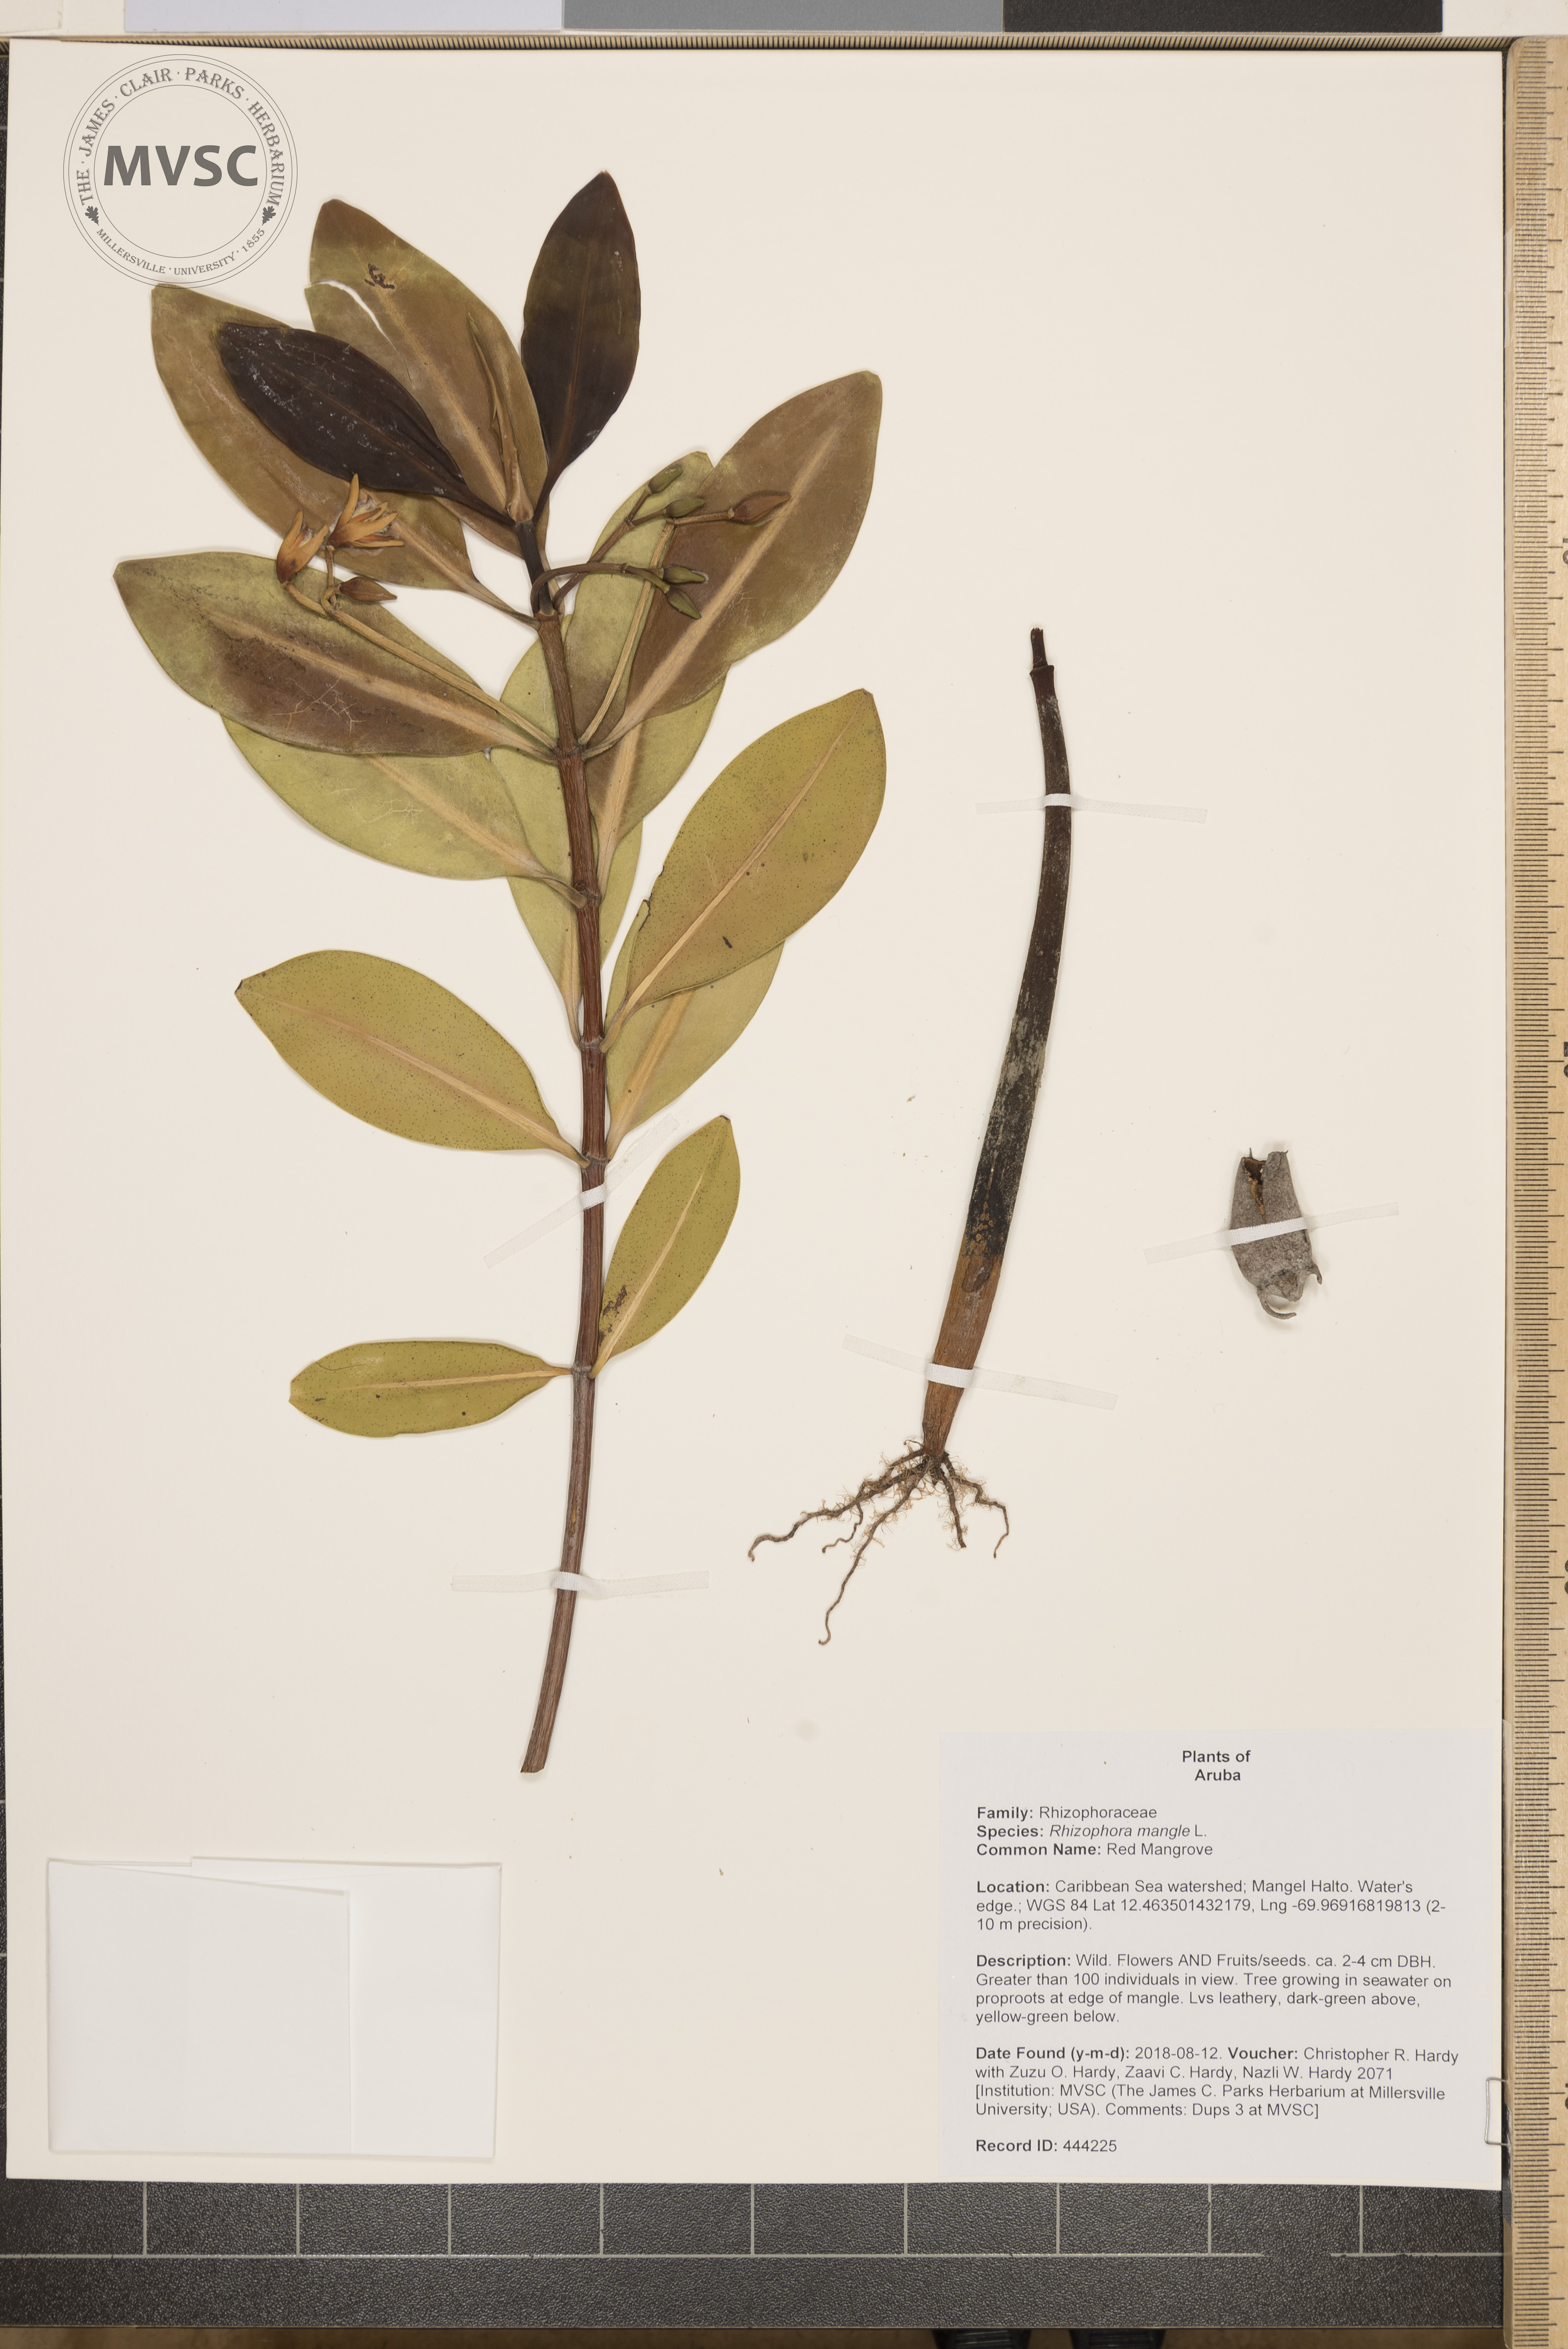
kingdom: Plantae
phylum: Tracheophyta
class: Magnoliopsida
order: Malpighiales
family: Rhizophoraceae
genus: Rhizophora
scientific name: Rhizophora mangle
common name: Red Mangrove
